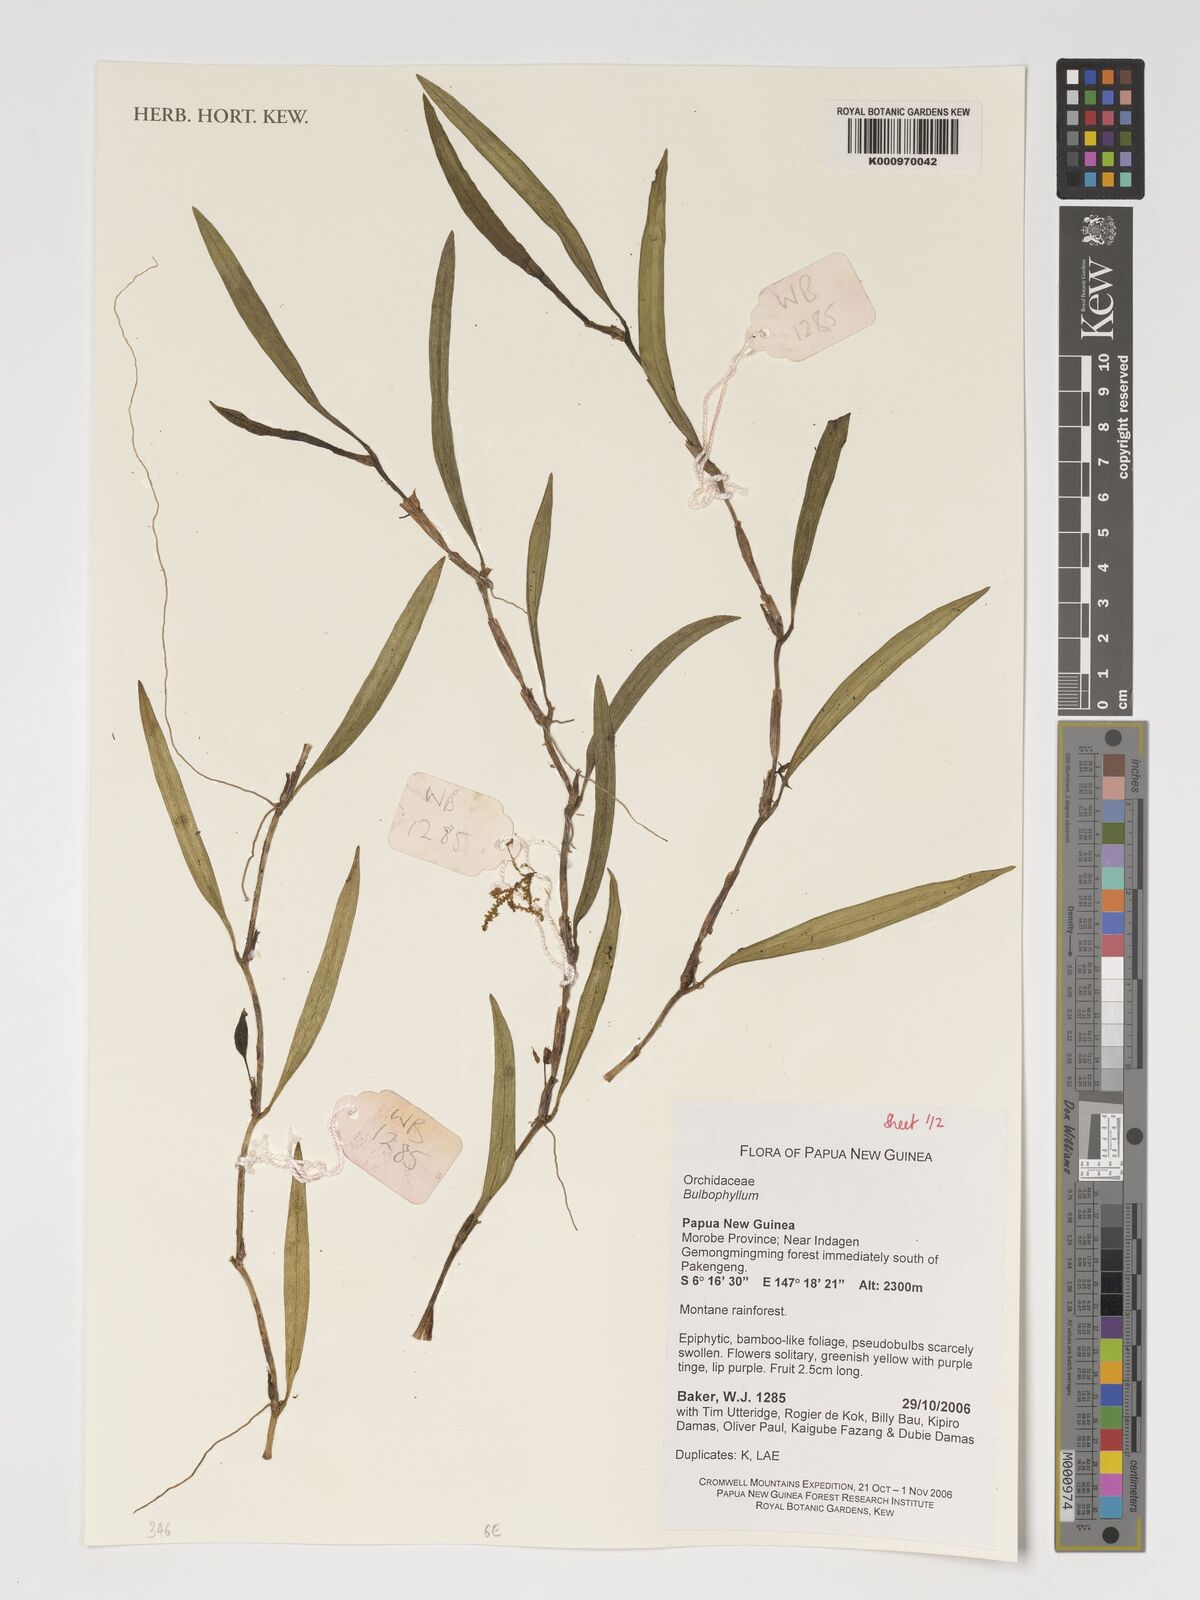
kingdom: Plantae
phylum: Tracheophyta
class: Liliopsida
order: Asparagales
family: Orchidaceae
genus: Bulbophyllum
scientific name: Bulbophyllum
